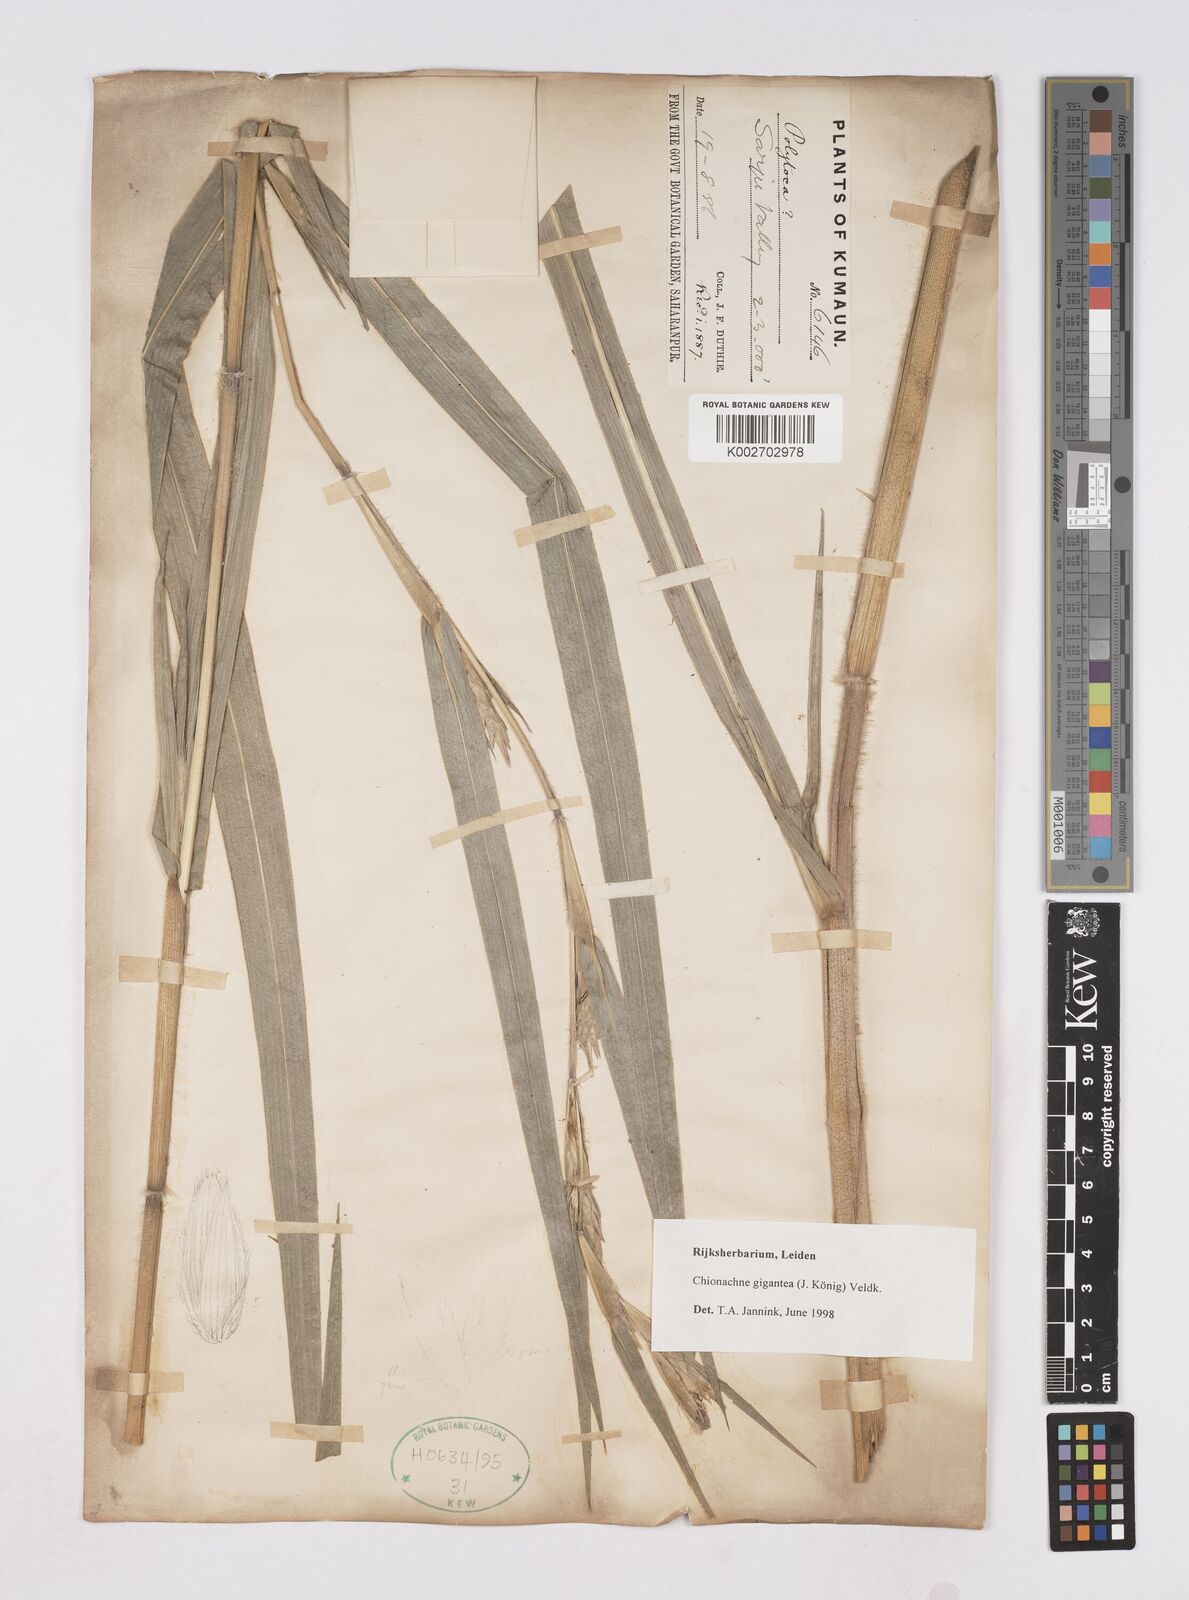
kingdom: Plantae
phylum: Tracheophyta
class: Liliopsida
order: Poales
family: Poaceae
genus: Polytoca
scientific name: Polytoca gigantea
